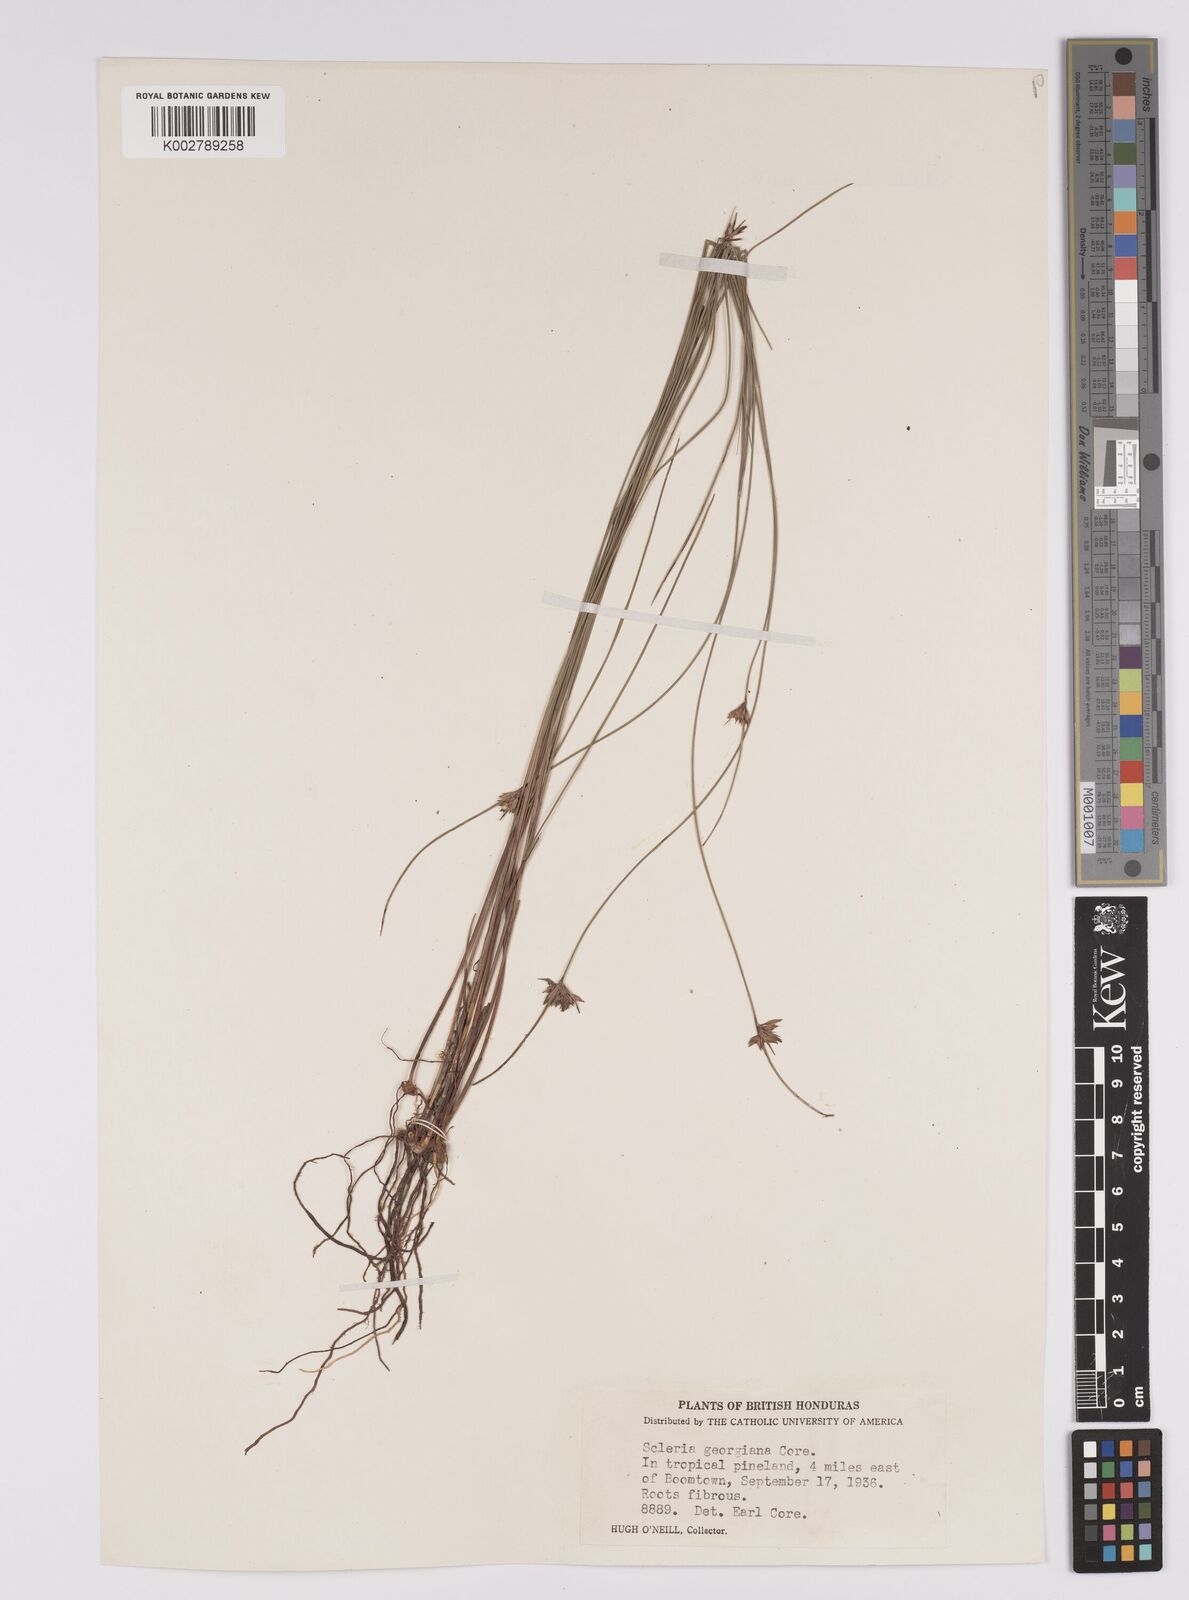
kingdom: Plantae
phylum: Tracheophyta
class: Liliopsida
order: Poales
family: Cyperaceae
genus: Scleria
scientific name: Scleria georgiana
